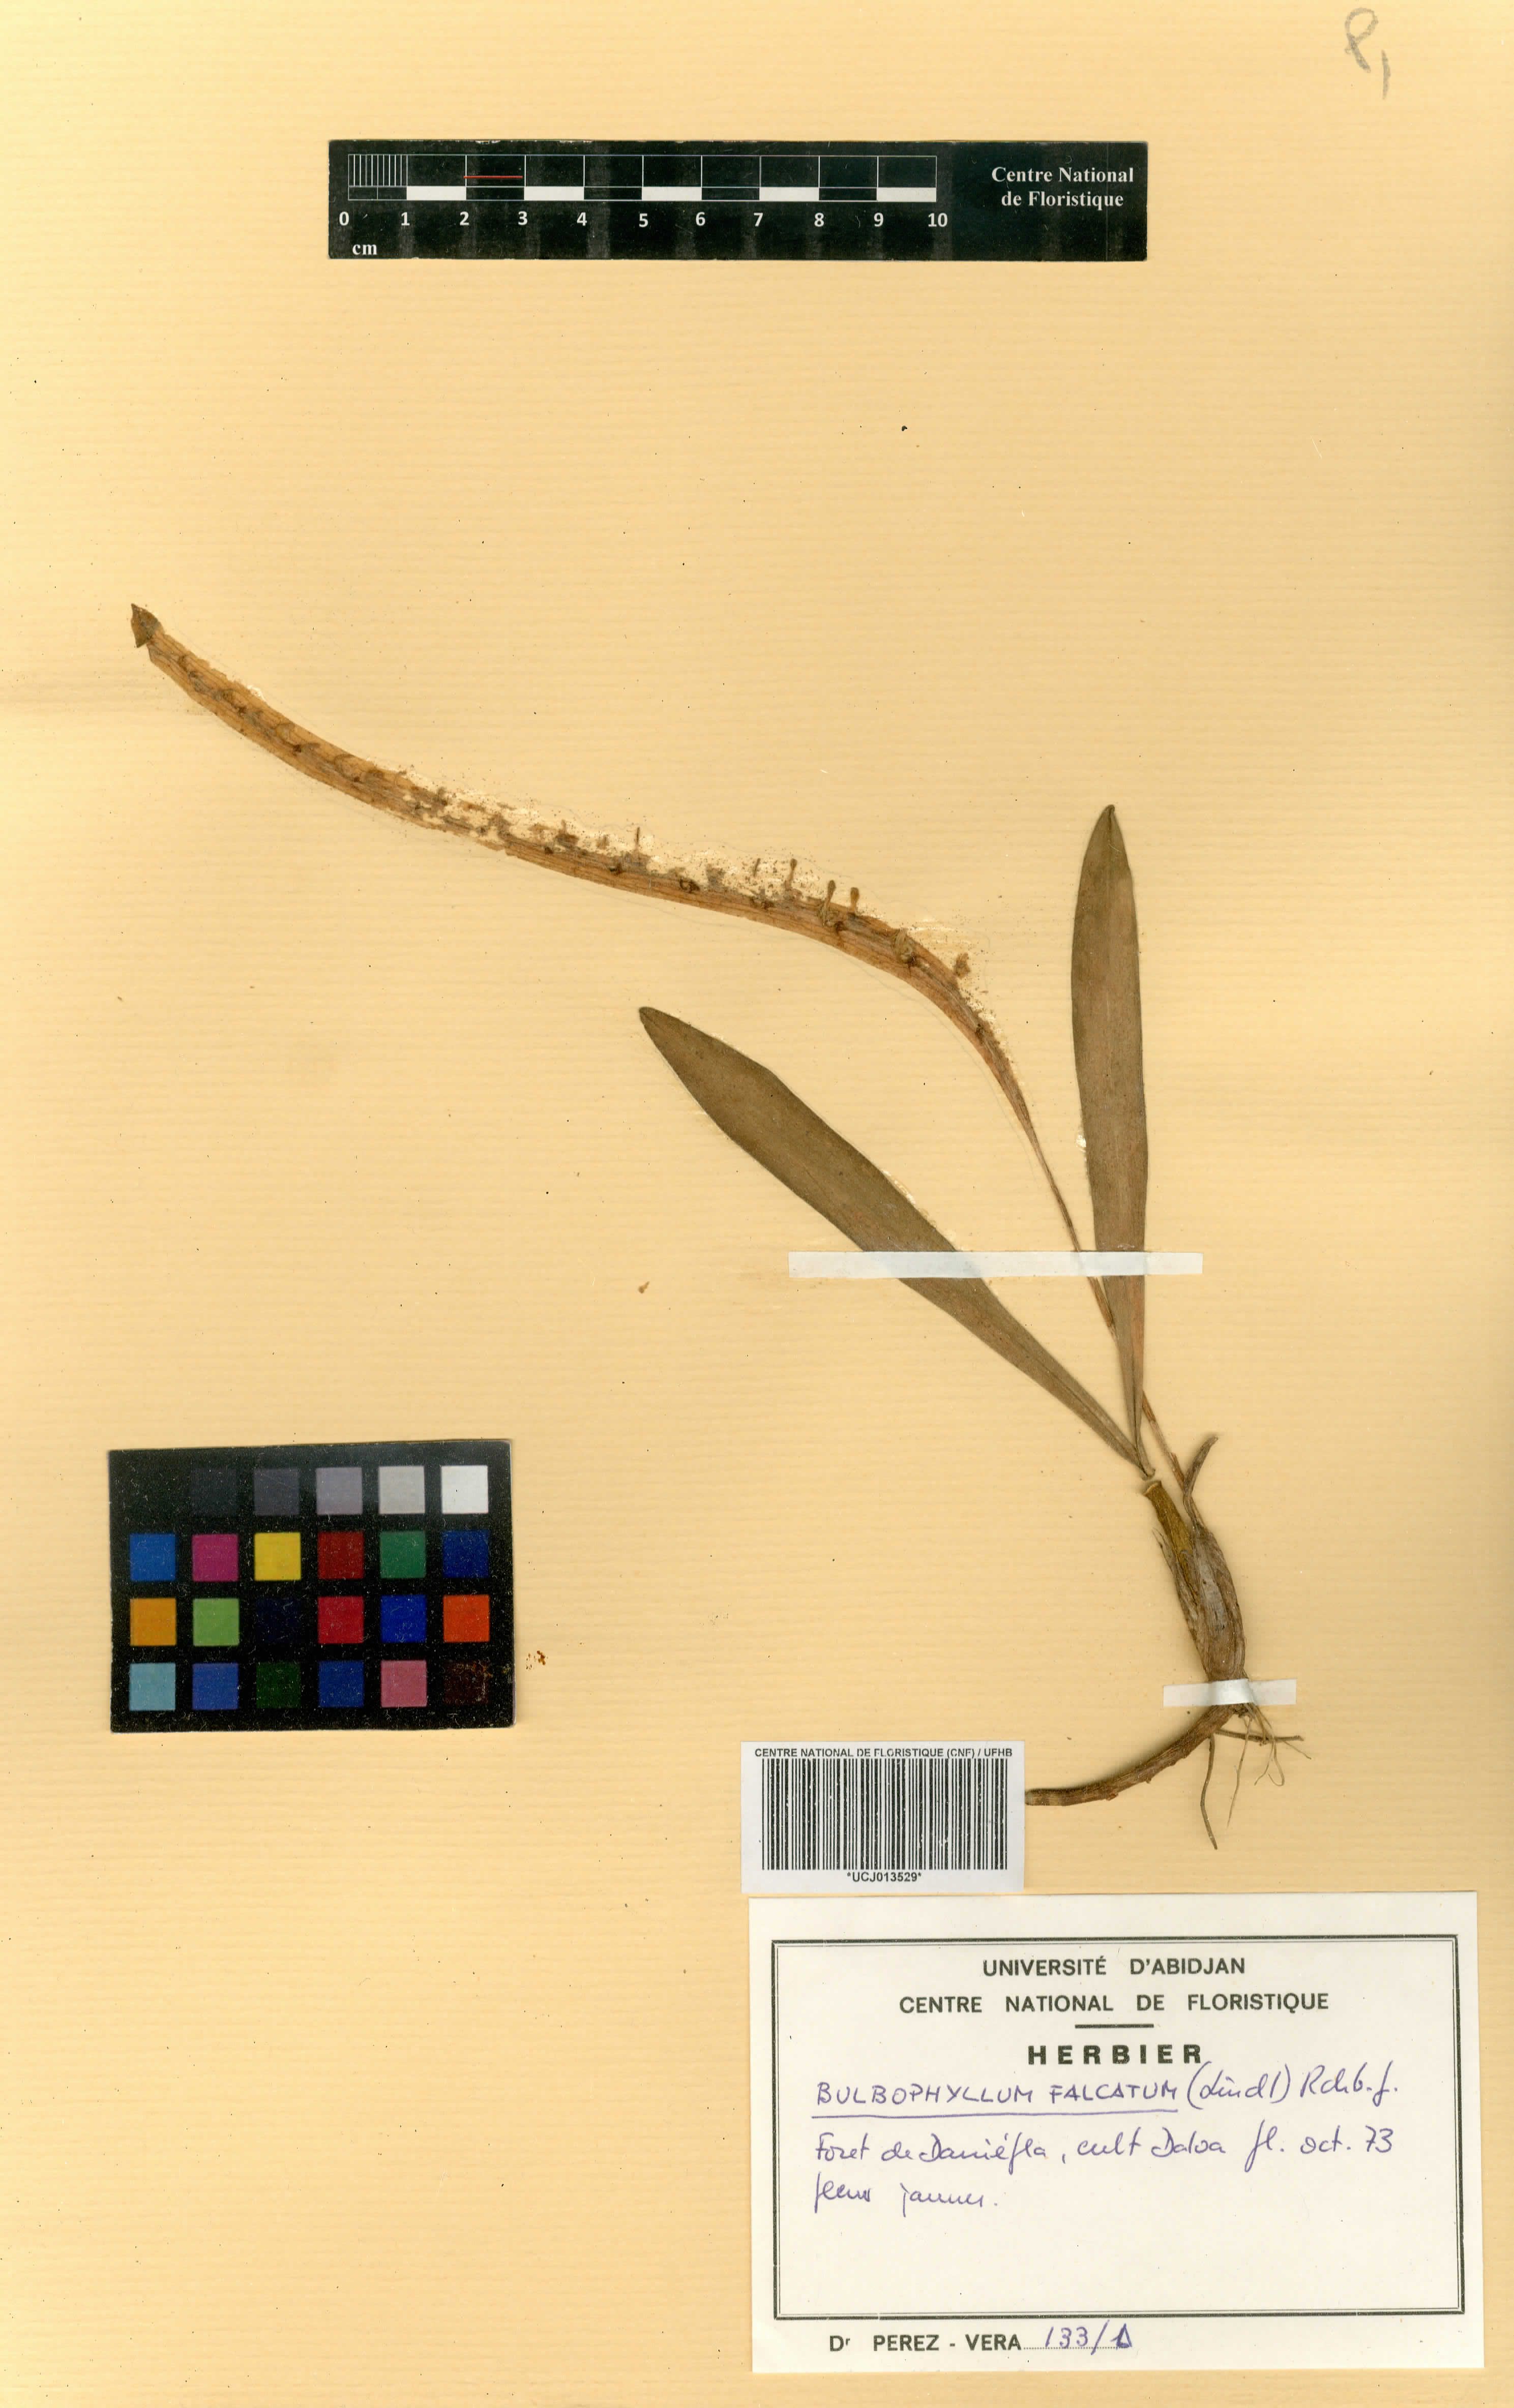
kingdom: Plantae
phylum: Tracheophyta
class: Liliopsida
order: Asparagales
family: Orchidaceae
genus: Bulbophyllum
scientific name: Bulbophyllum falcatum
